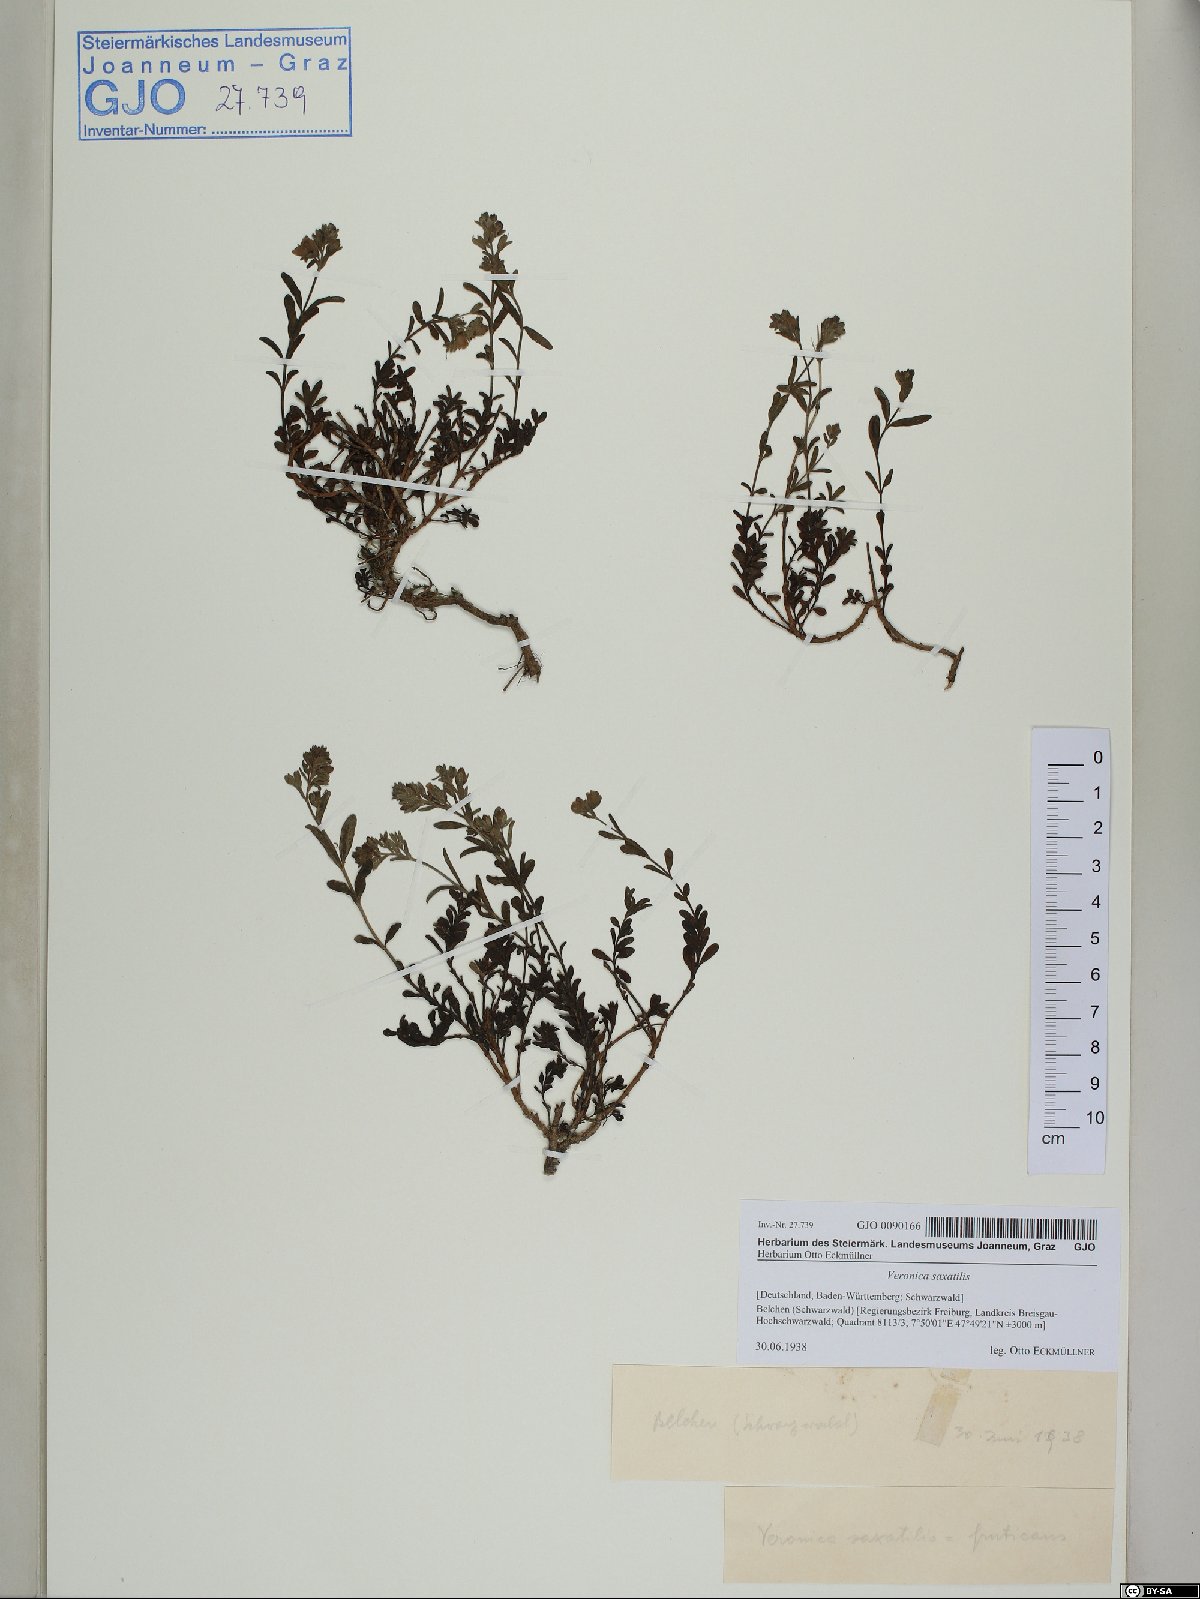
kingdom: Plantae
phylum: Tracheophyta
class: Magnoliopsida
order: Lamiales
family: Plantaginaceae
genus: Veronica
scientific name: Veronica fruticans
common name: Rock speedwell
